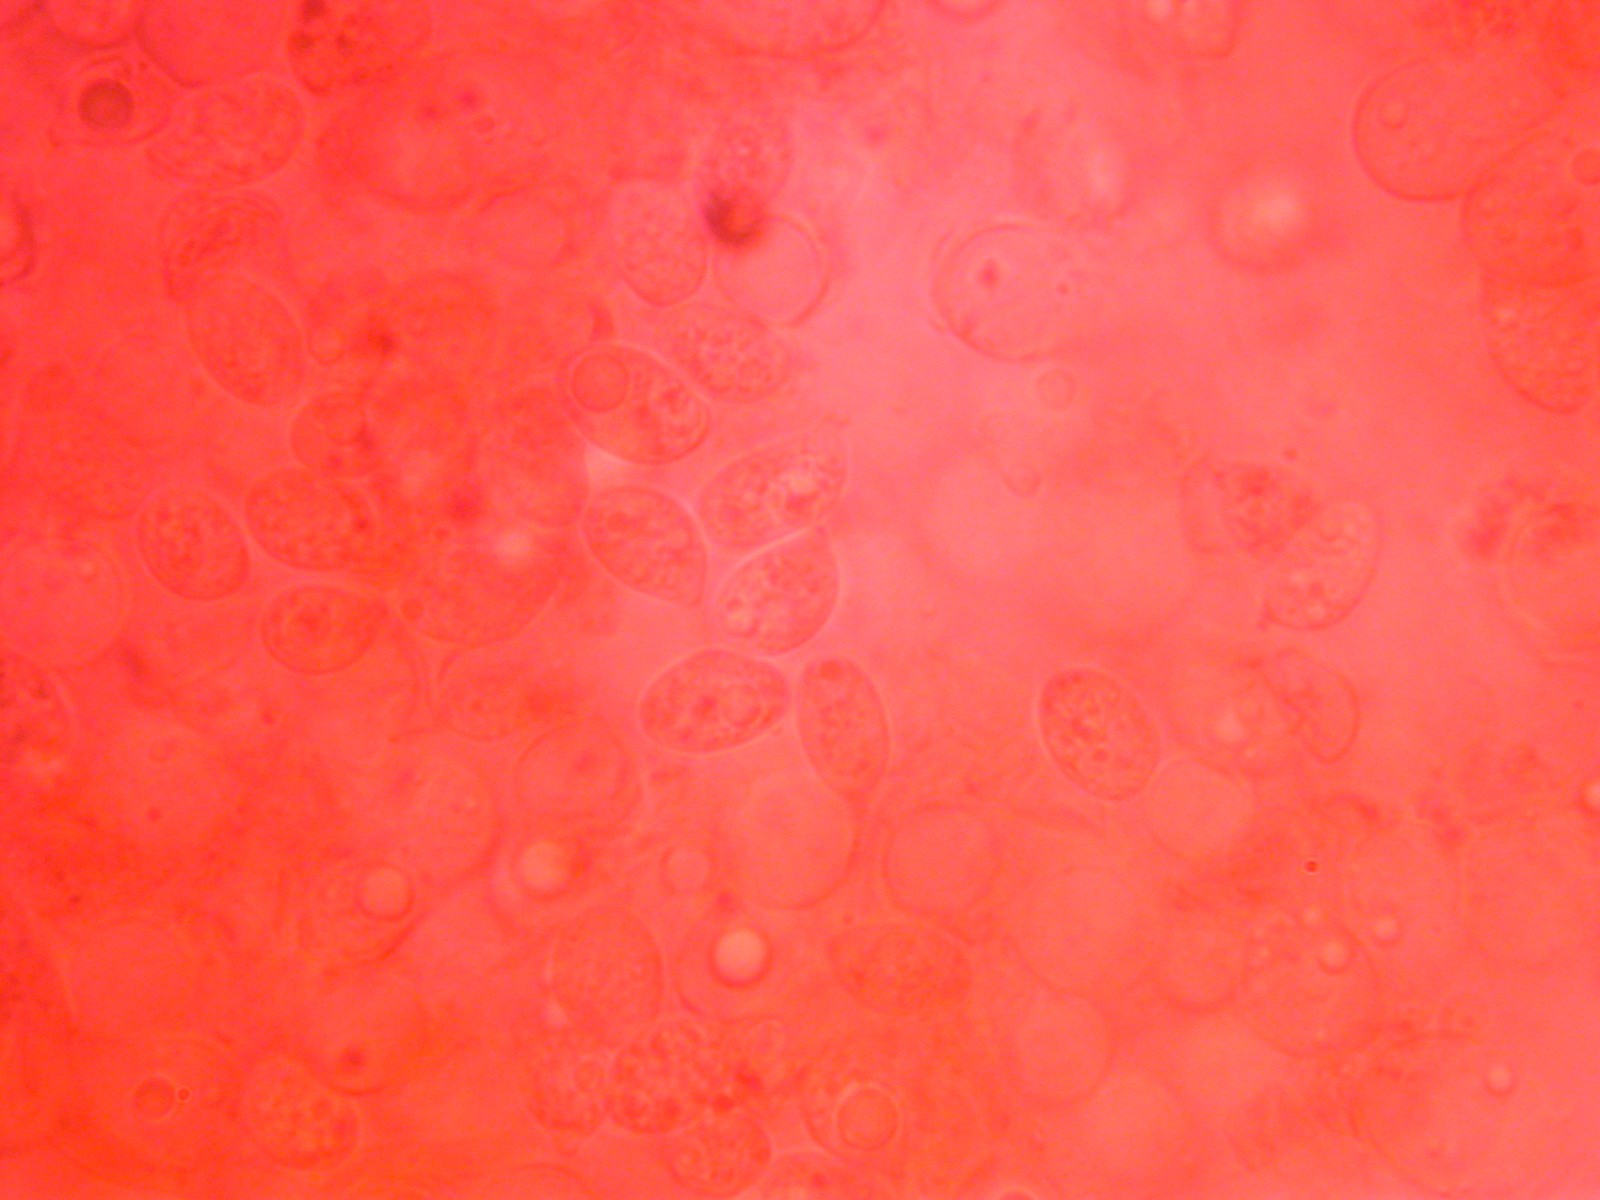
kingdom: Fungi
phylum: Basidiomycota
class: Agaricomycetes
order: Agaricales
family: Hygrophoraceae
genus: Arrhenia
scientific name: Arrhenia obscurata
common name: hede-fontænehat
